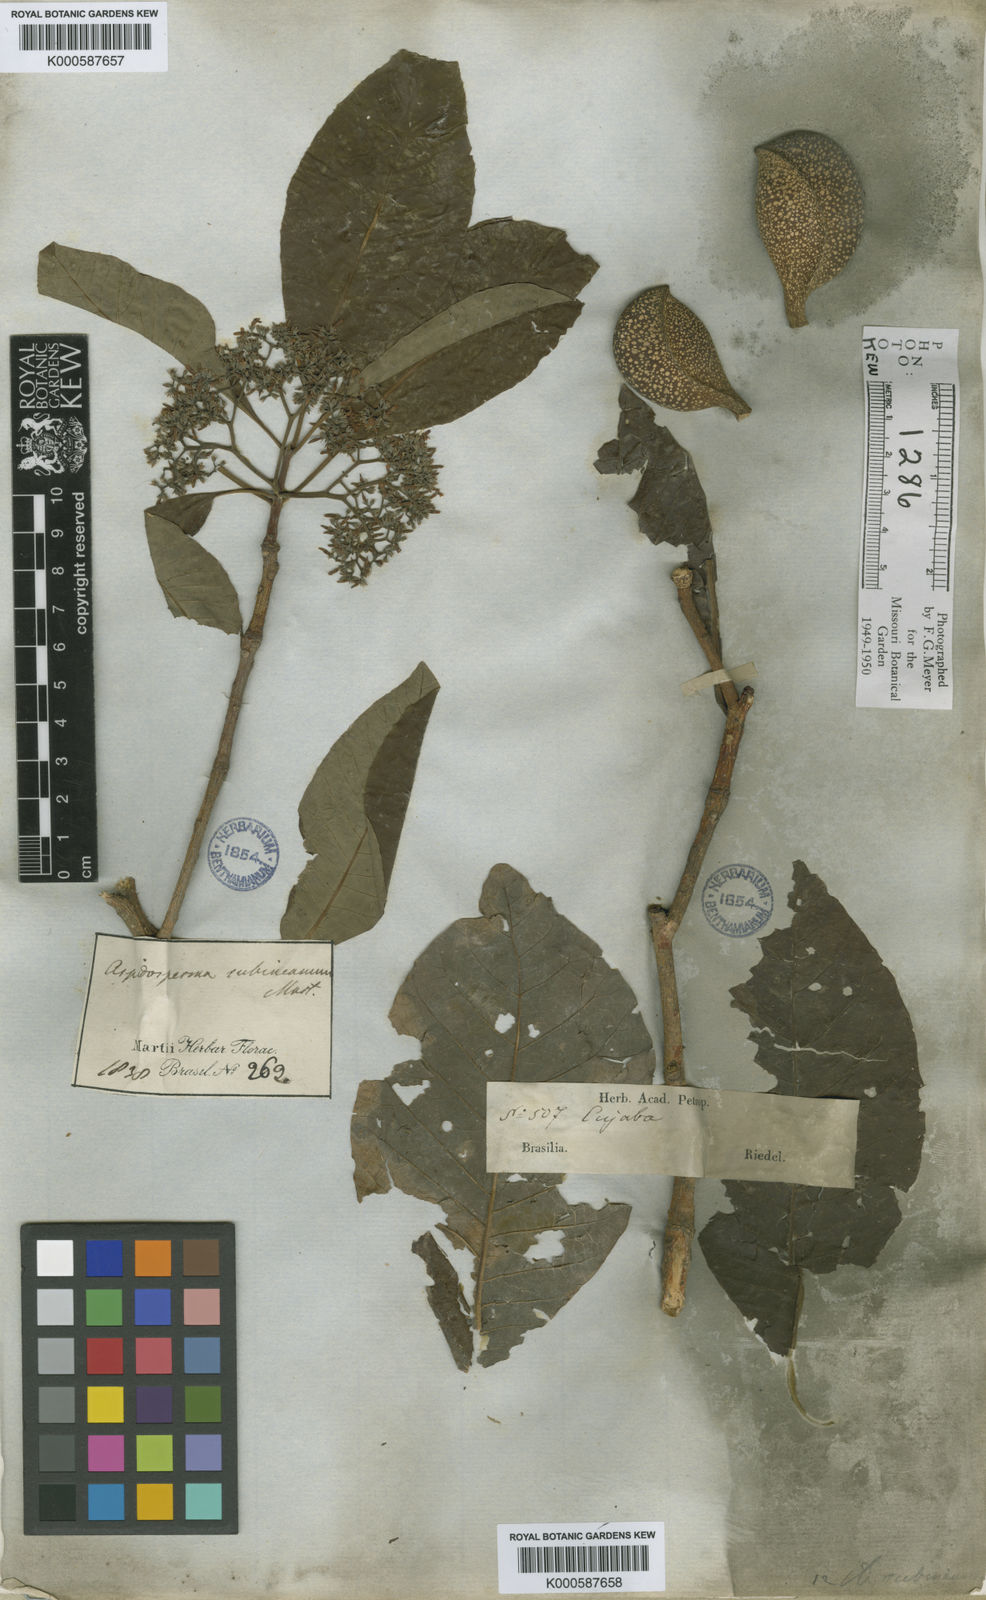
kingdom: Plantae
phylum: Tracheophyta
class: Magnoliopsida
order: Gentianales
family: Apocynaceae
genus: Aspidosperma
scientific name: Aspidosperma
